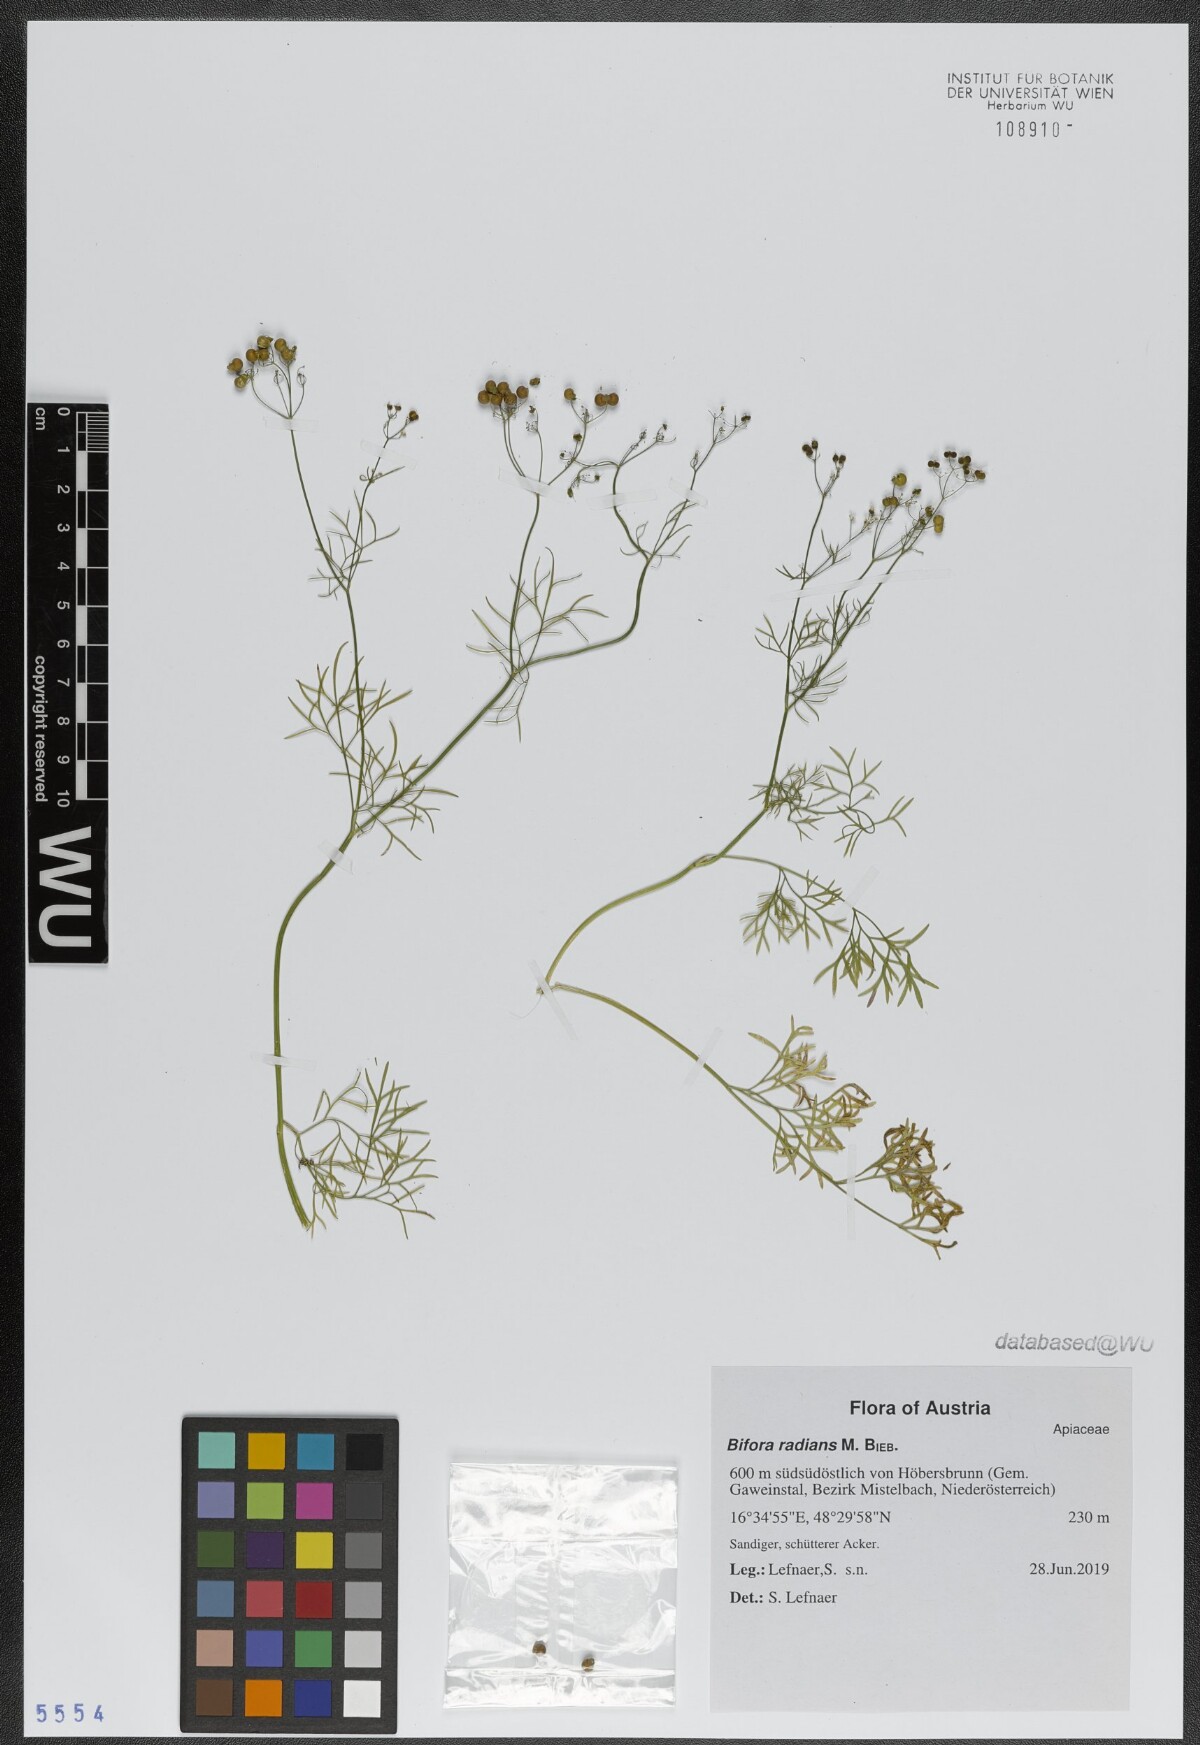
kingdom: Plantae
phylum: Tracheophyta
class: Magnoliopsida
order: Apiales
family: Apiaceae
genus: Bifora
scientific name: Bifora radians
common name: Wild bishop
